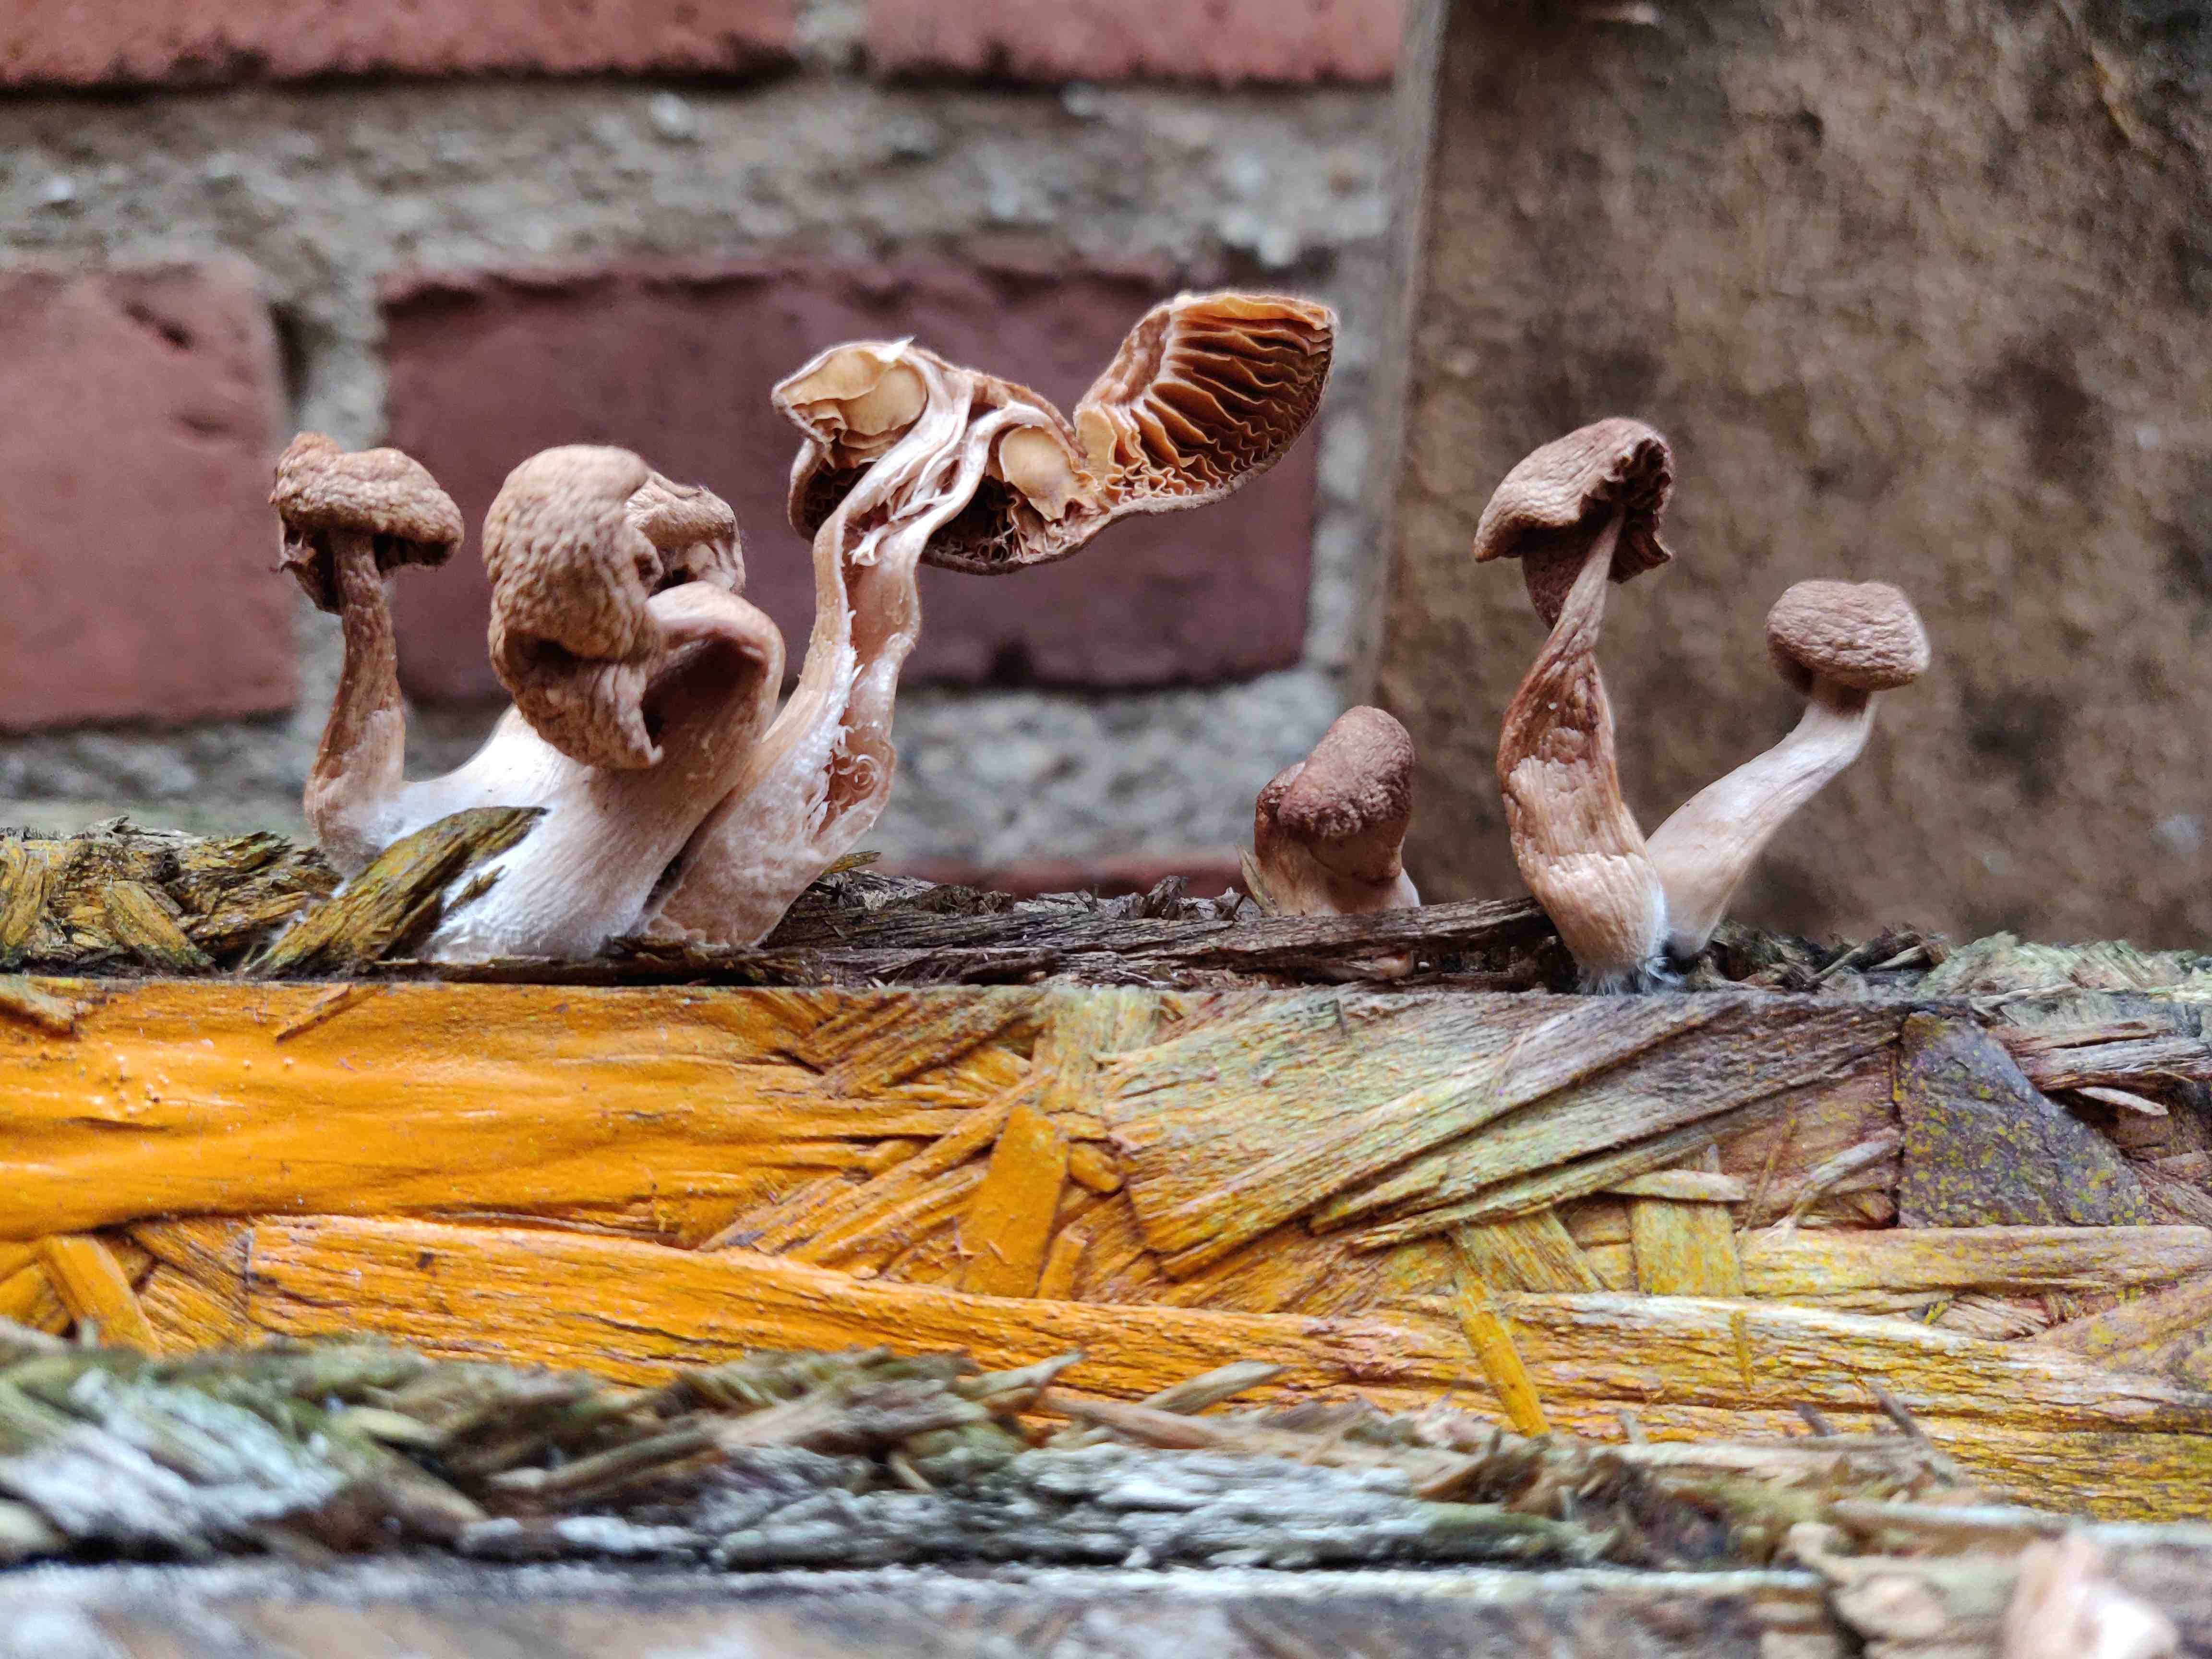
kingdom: Fungi
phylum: Basidiomycota
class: Agaricomycetes
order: Agaricales
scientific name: Agaricales
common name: champignonordenen
